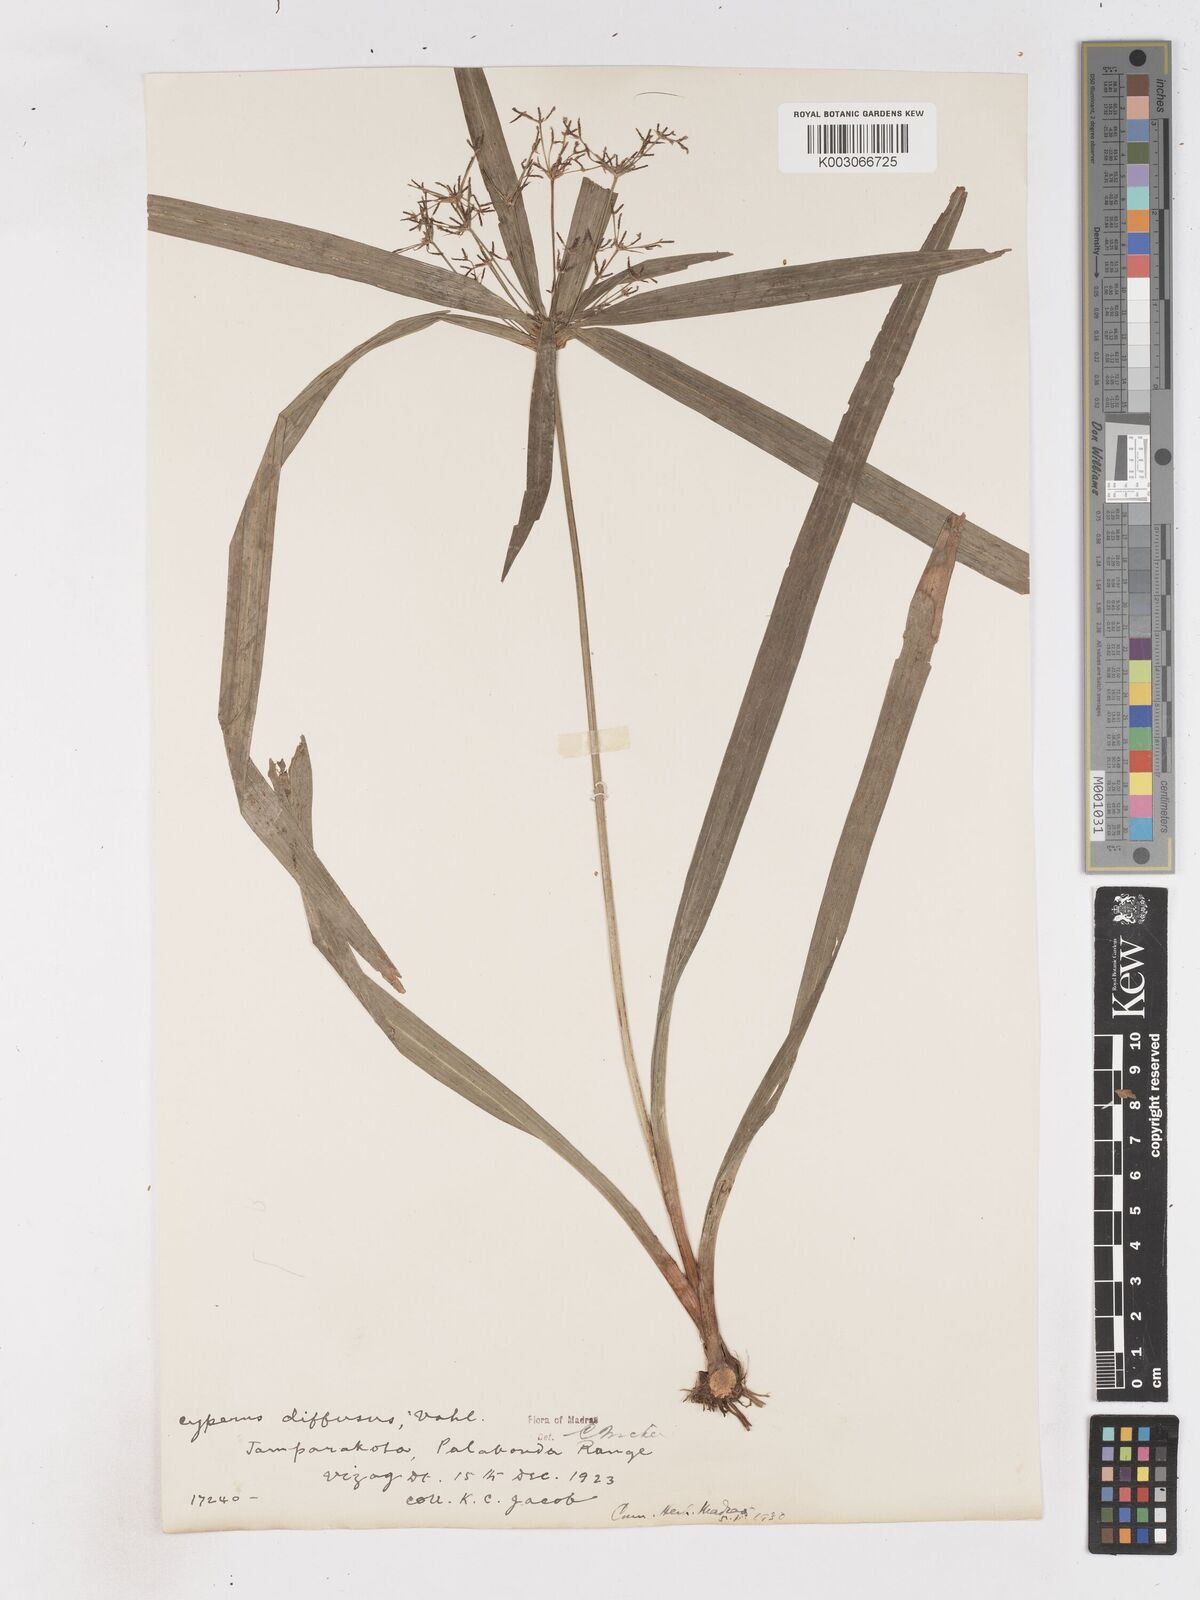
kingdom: Plantae
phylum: Tracheophyta
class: Liliopsida
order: Poales
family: Cyperaceae
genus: Cyperus
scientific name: Cyperus diffusus
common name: Dwarf umbrella grass
